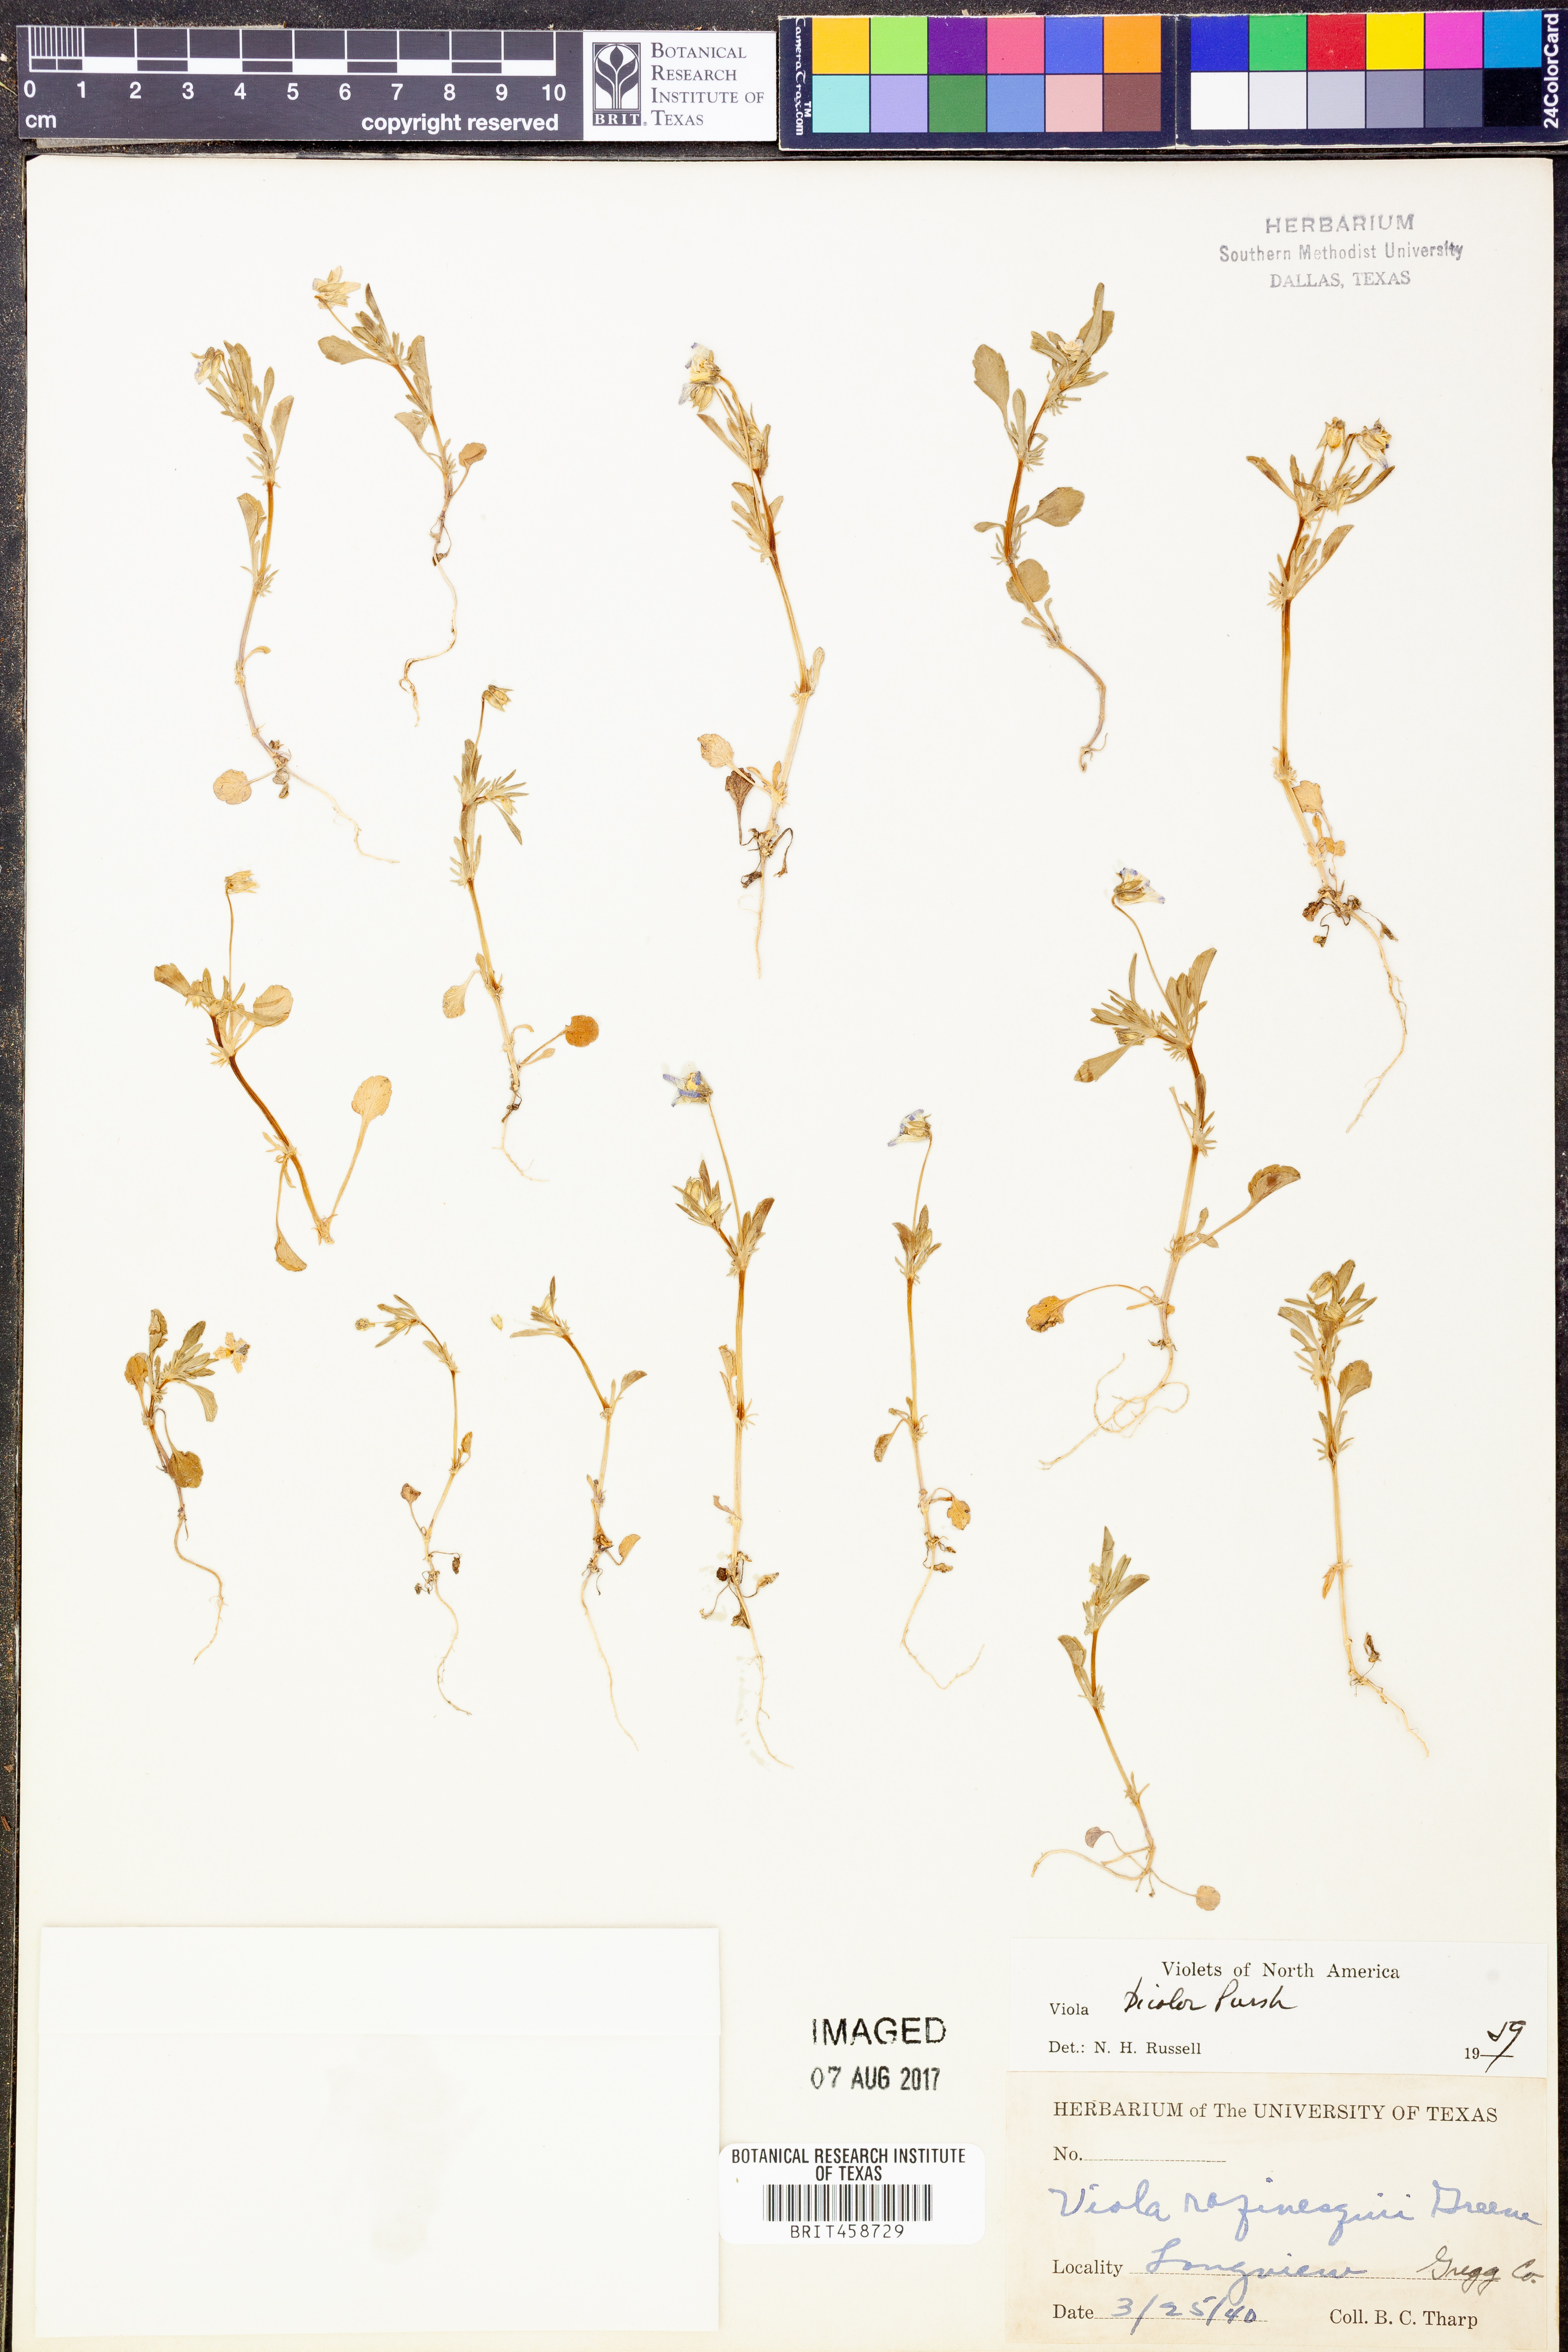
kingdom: Plantae
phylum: Tracheophyta
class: Magnoliopsida
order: Malpighiales
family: Violaceae
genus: Viola
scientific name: Viola rafinesquei
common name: American field pansy
